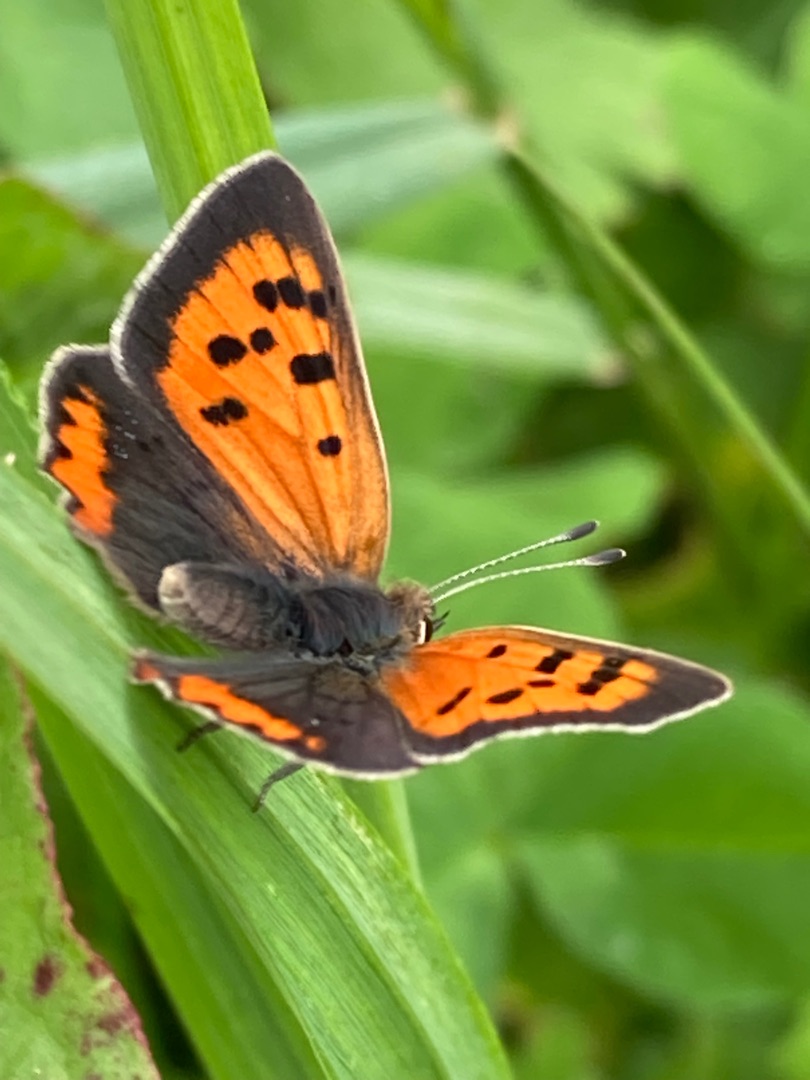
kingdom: Animalia
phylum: Arthropoda
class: Insecta
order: Lepidoptera
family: Lycaenidae
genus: Lycaena
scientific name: Lycaena phlaeas
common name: Lille ildfugl
